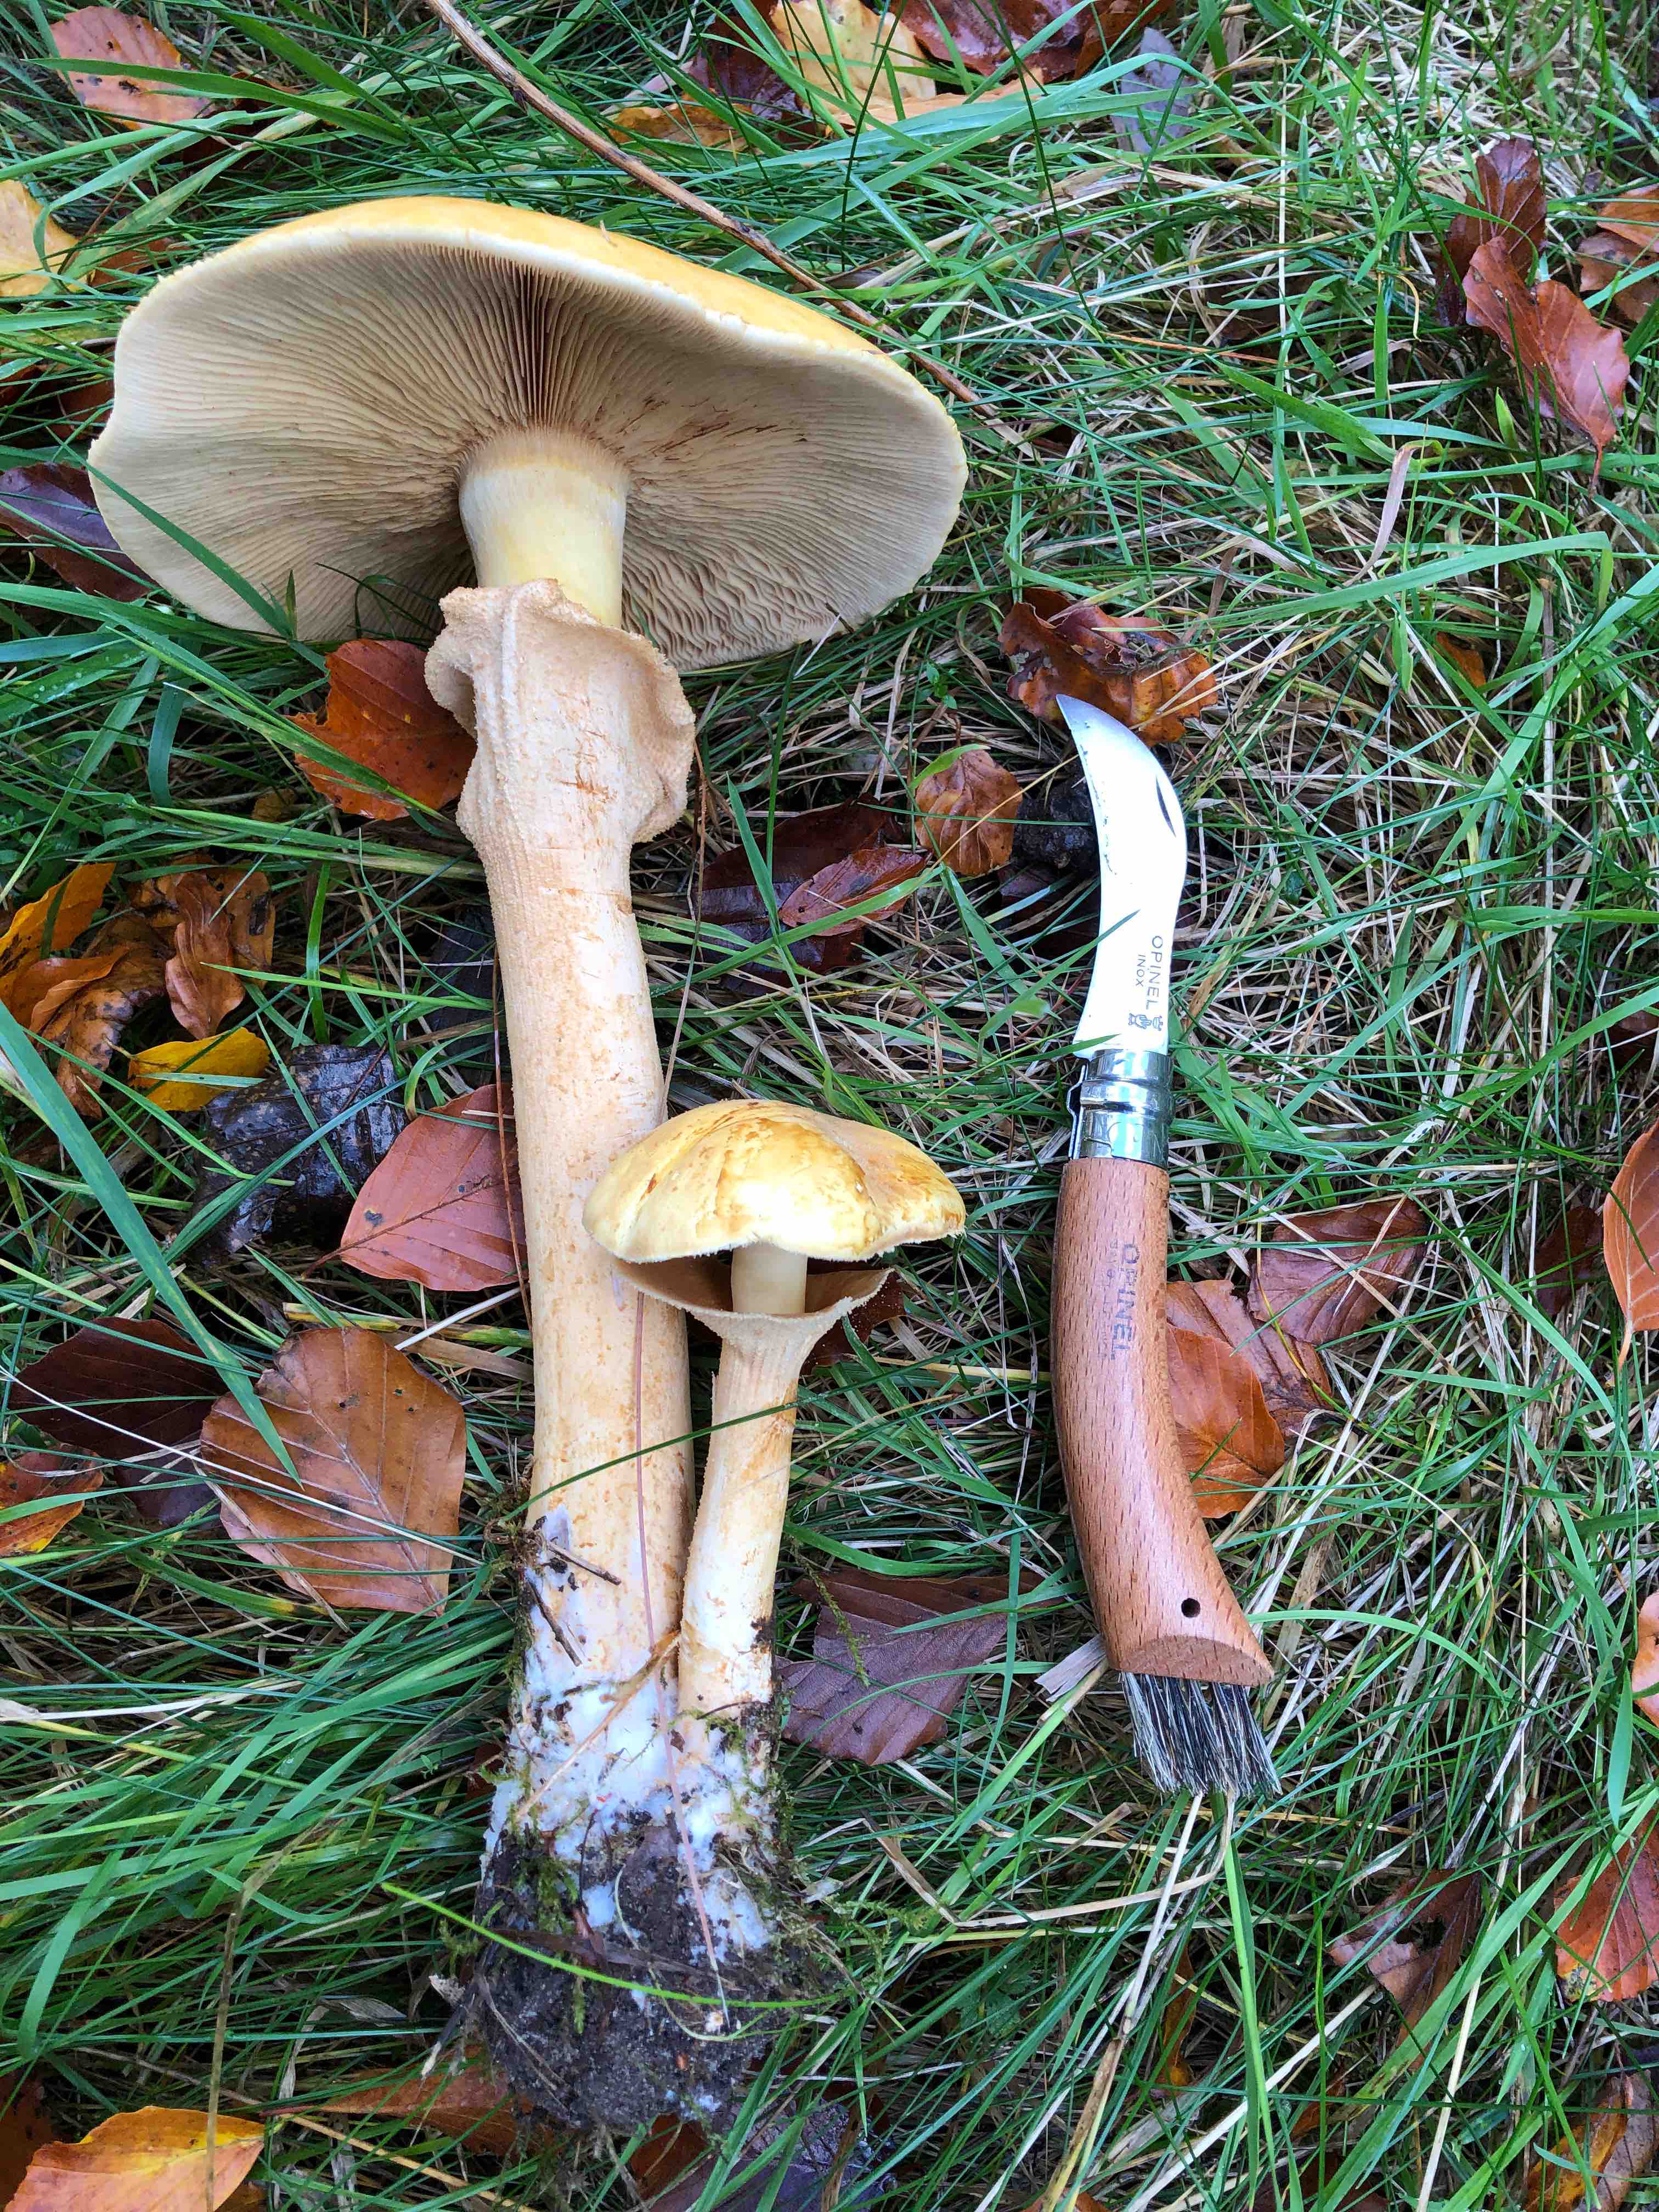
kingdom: Fungi
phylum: Basidiomycota
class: Agaricomycetes
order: Agaricales
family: Tricholomataceae
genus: Phaeolepiota
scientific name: Phaeolepiota aurea
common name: gyldenhat
